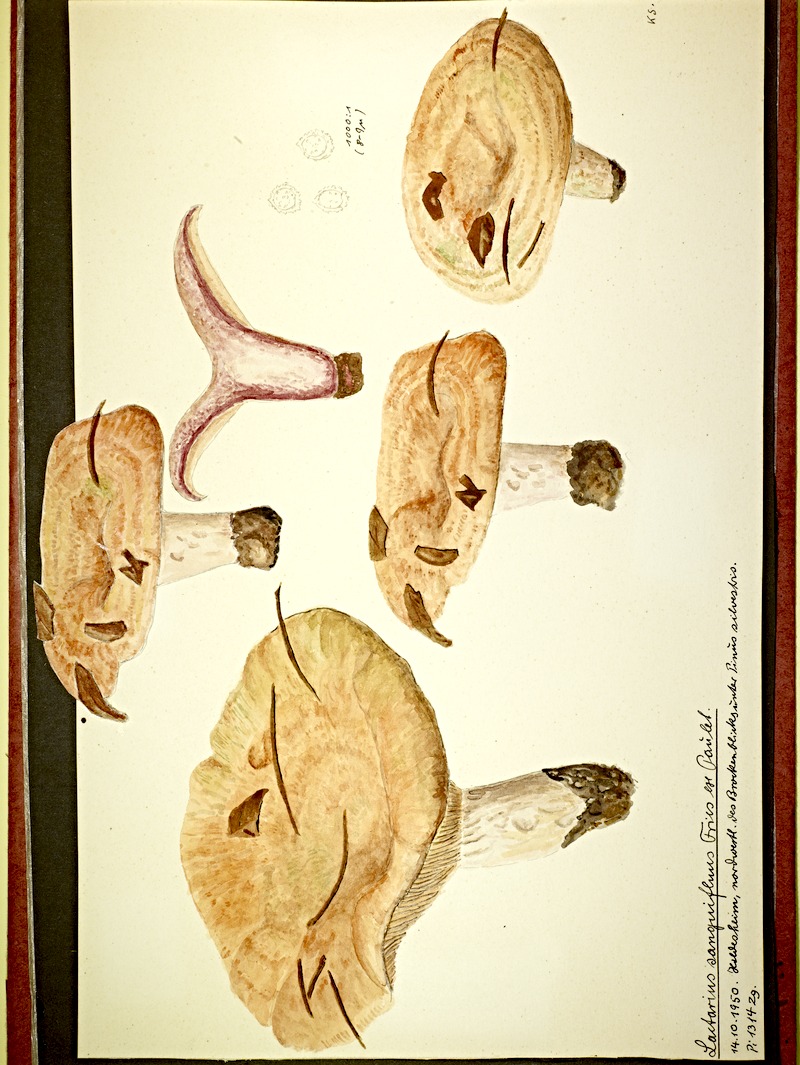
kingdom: Fungi
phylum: Basidiomycota
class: Agaricomycetes
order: Russulales
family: Russulaceae
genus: Lactarius
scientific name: Lactarius sanguifluus
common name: Bloody milkcap
